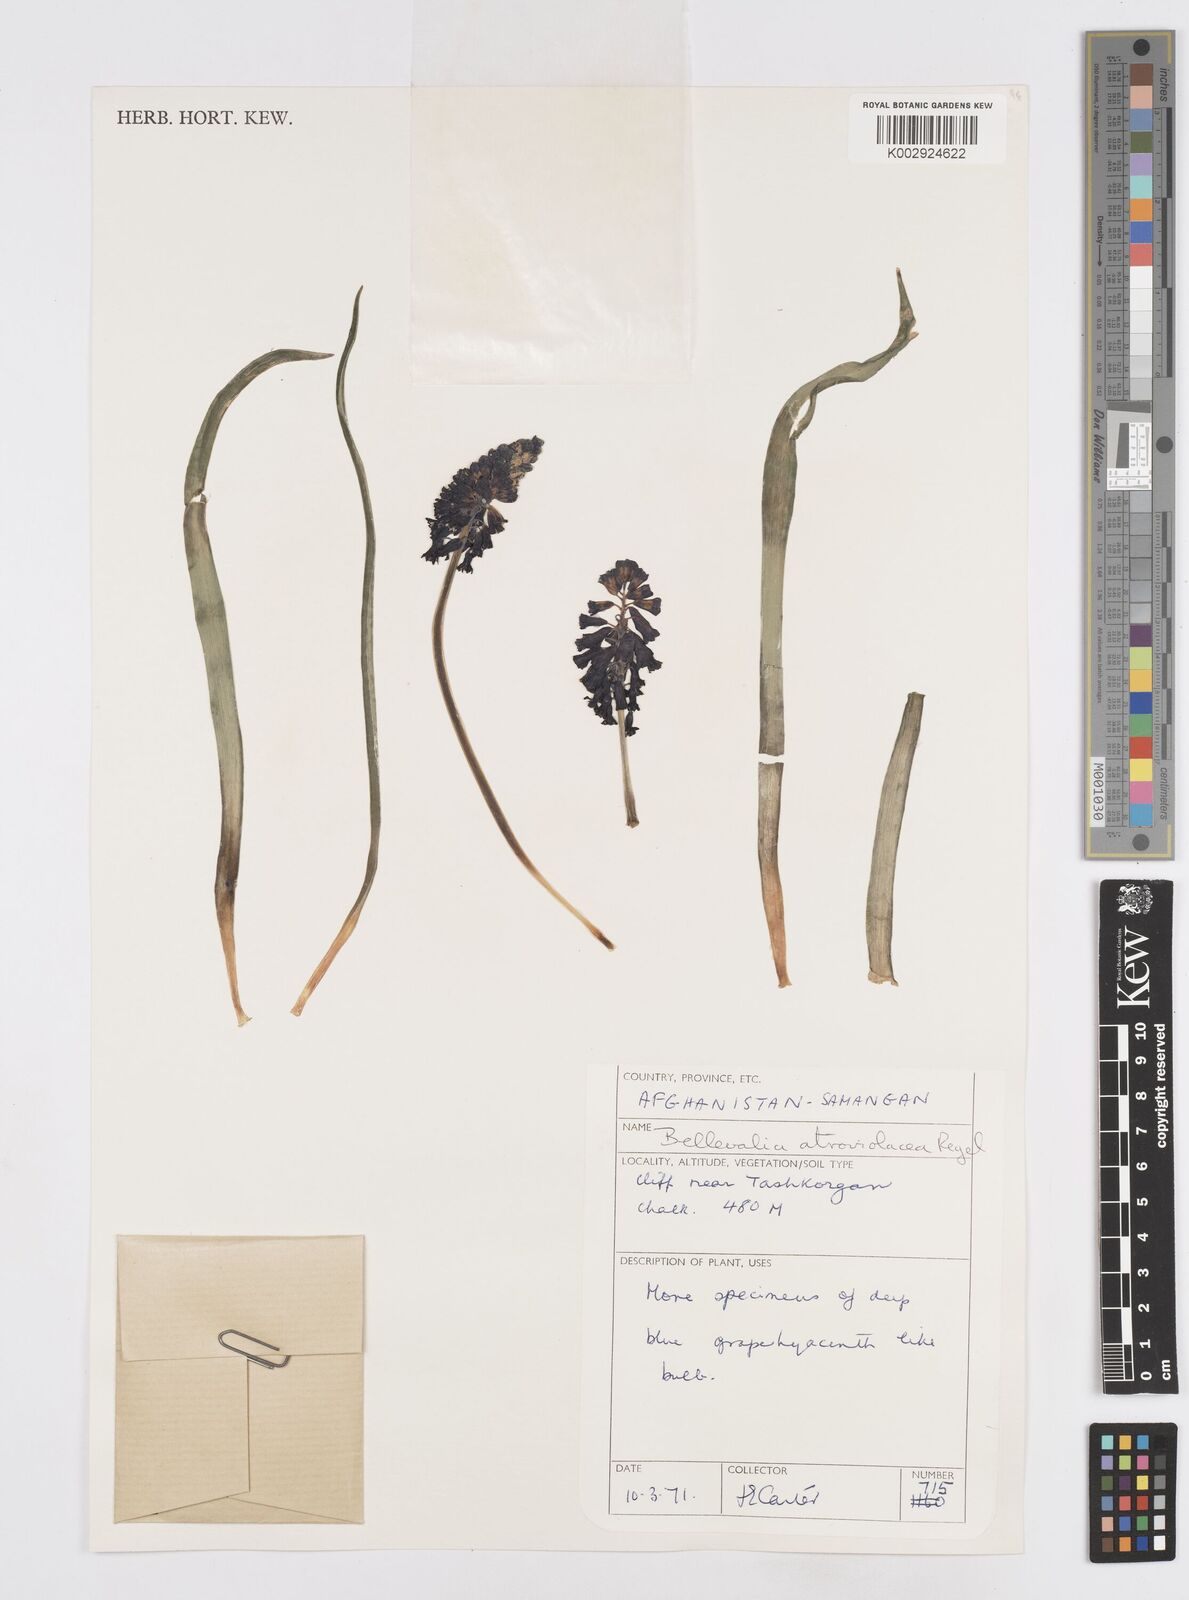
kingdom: Plantae
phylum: Tracheophyta
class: Liliopsida
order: Asparagales
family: Asparagaceae
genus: Bellevalia
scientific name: Bellevalia turkestanica
